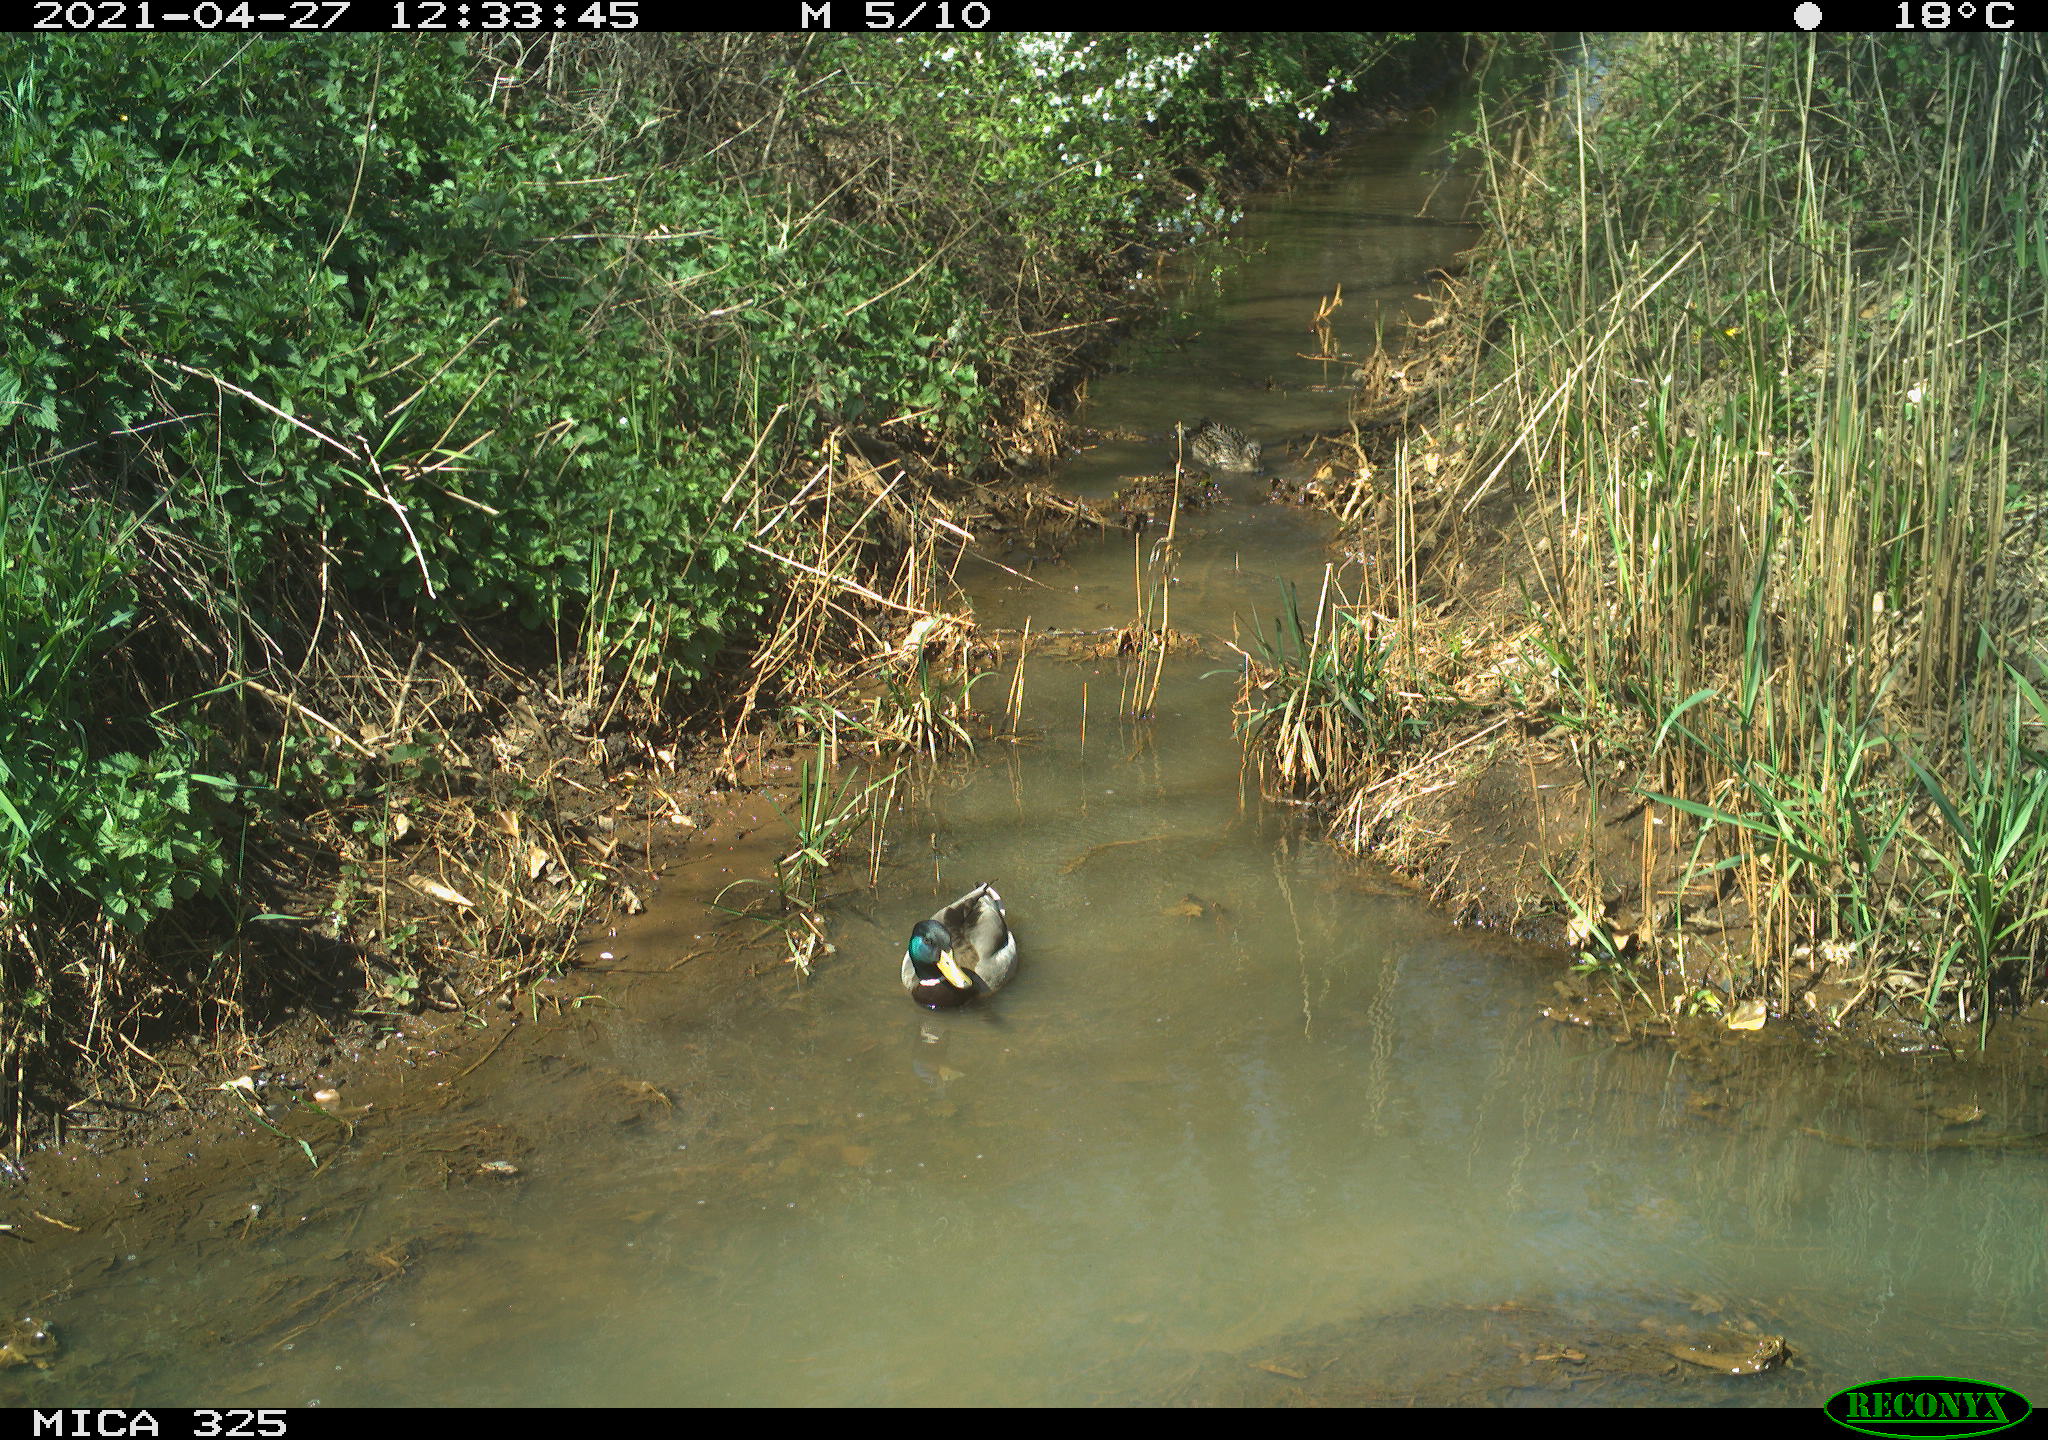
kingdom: Animalia
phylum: Chordata
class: Aves
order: Anseriformes
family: Anatidae
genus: Anas
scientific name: Anas platyrhynchos
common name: Mallard
